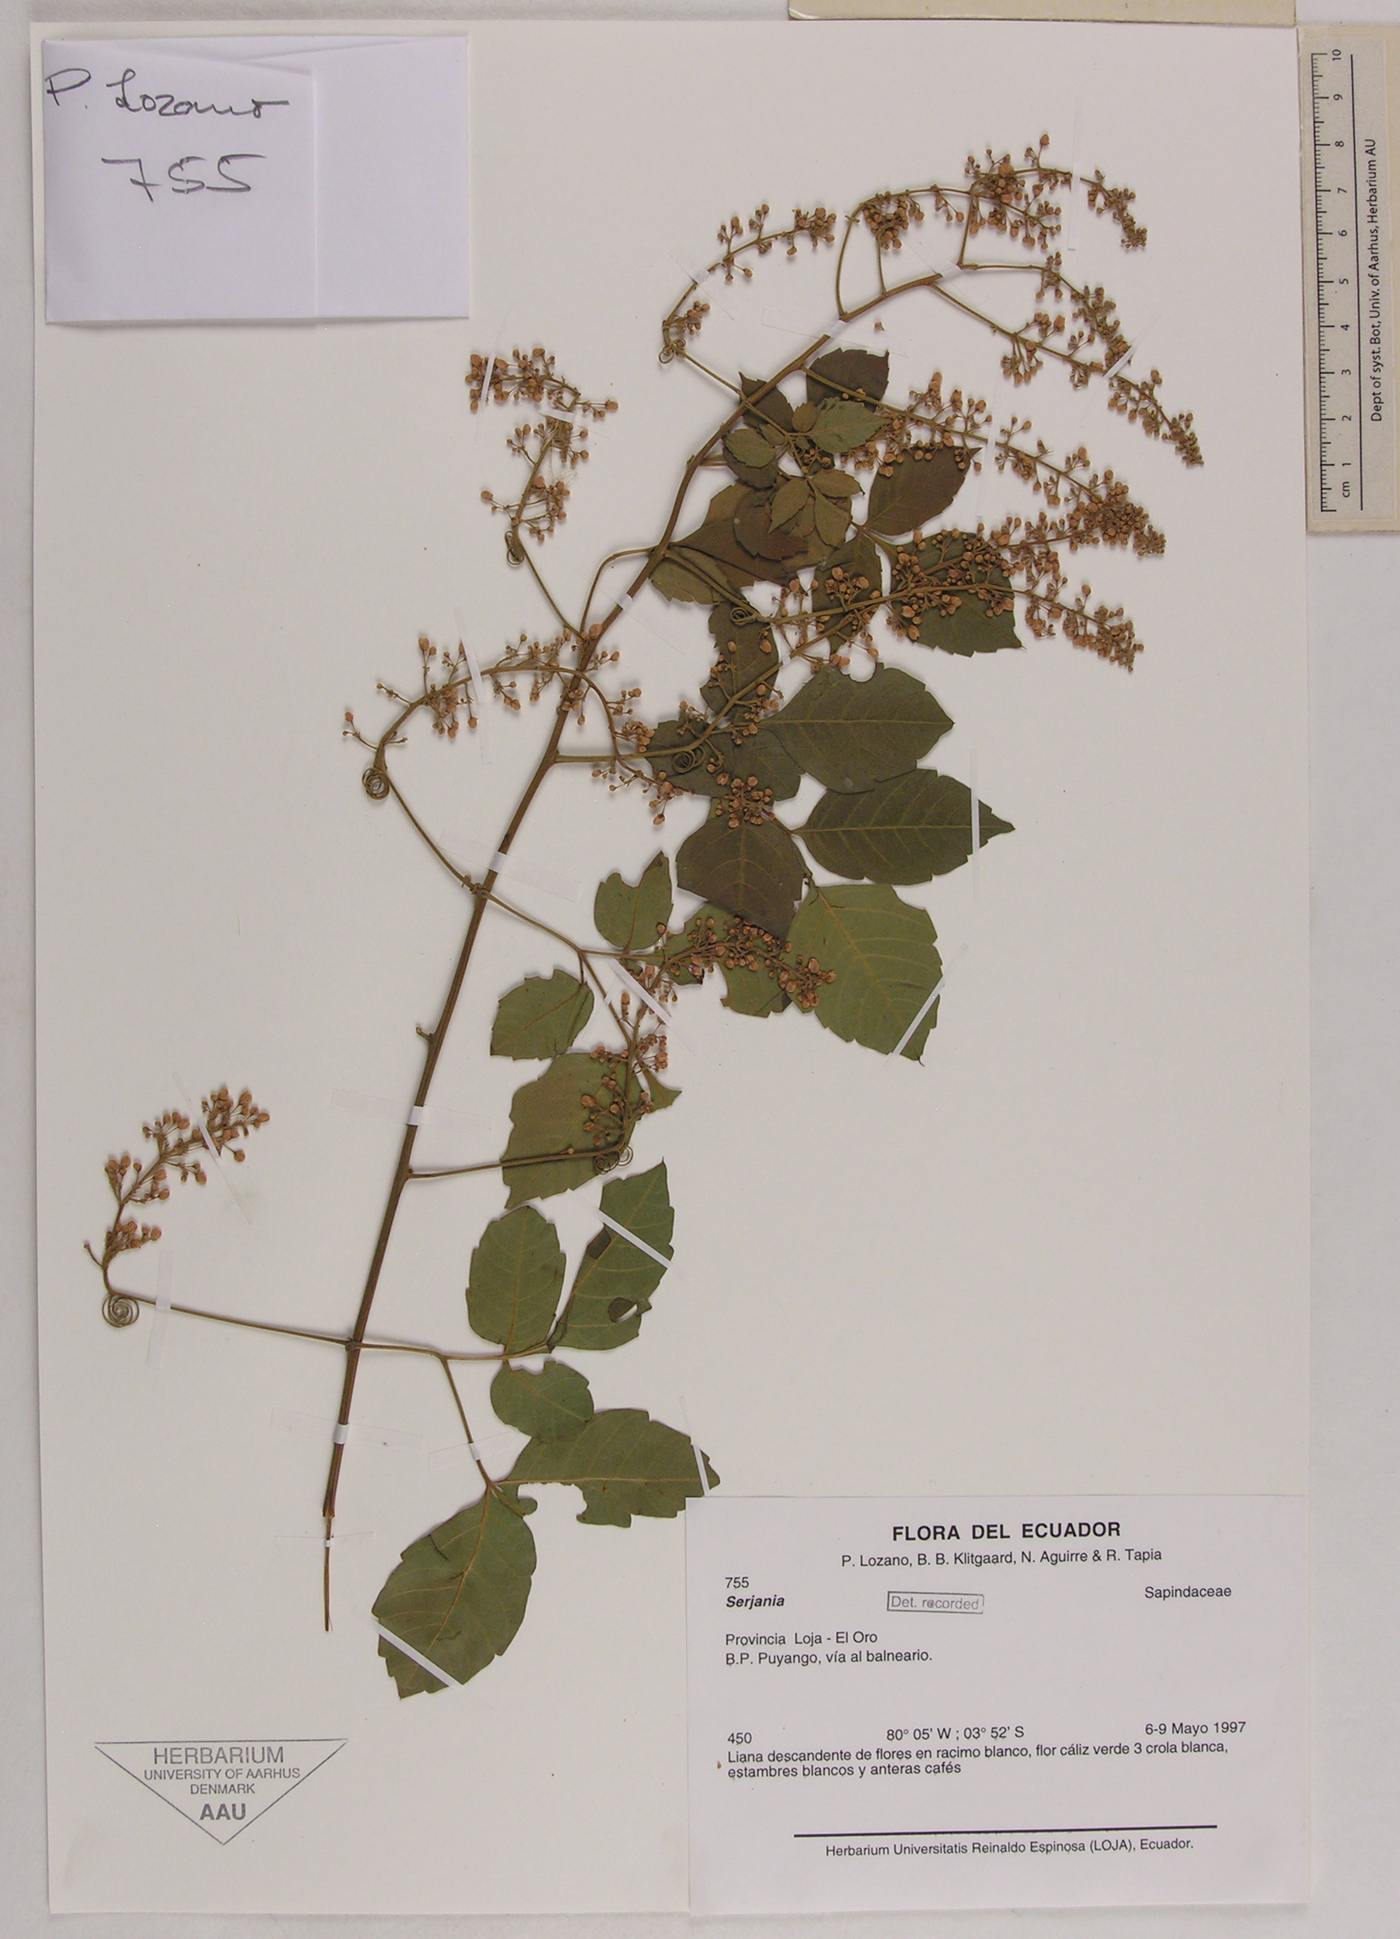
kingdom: Plantae
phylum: Tracheophyta
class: Magnoliopsida
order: Sapindales
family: Sapindaceae
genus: Serjania
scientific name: Serjania
